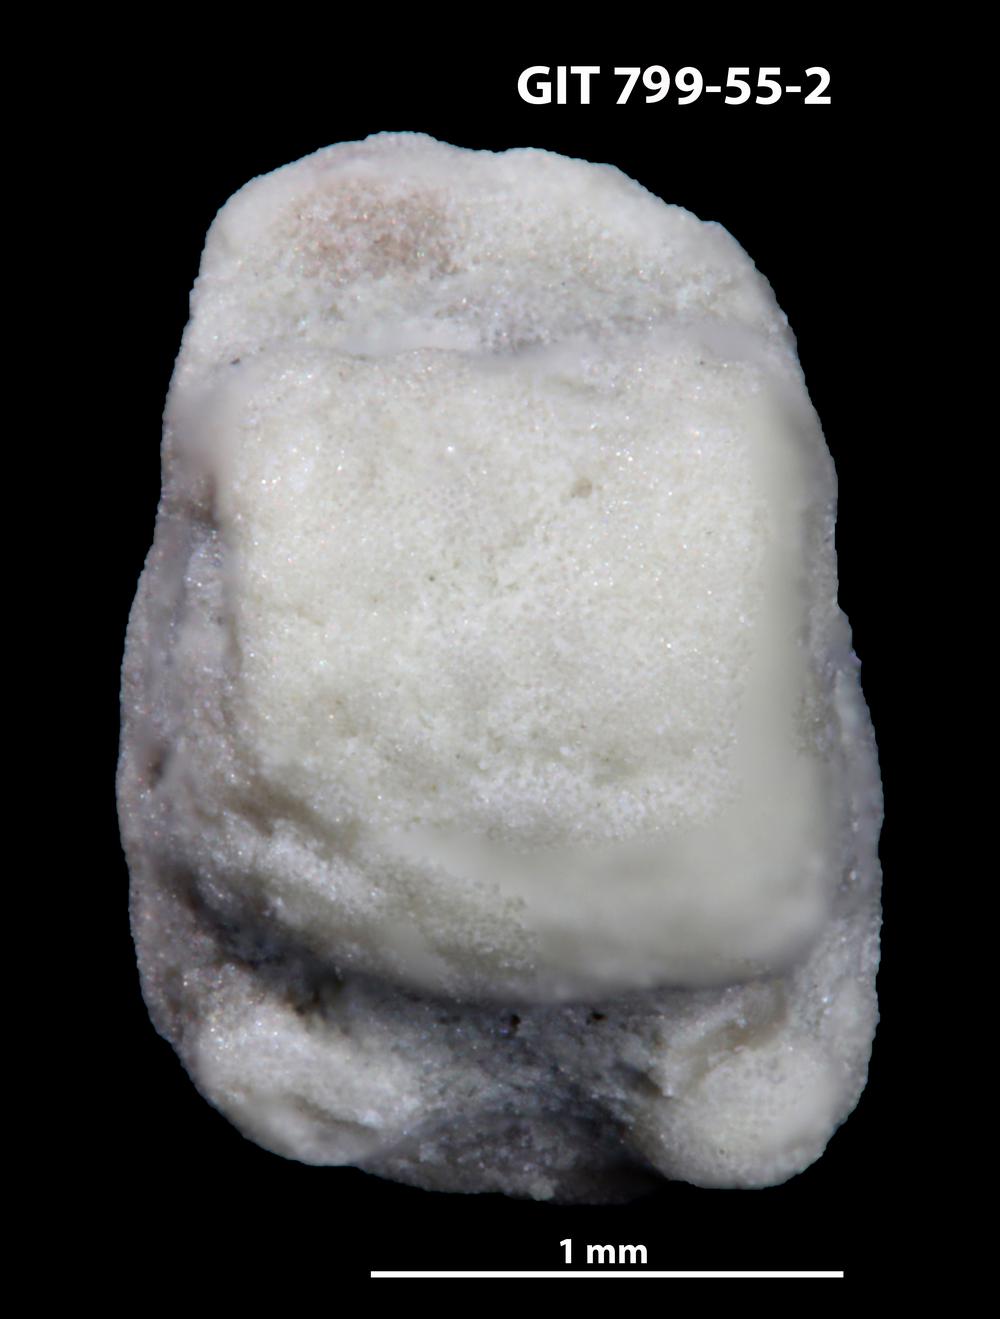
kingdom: Animalia
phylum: Echinodermata
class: Crinoidea
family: Cyclocystoididae
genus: Polytryphocycloides
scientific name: Polytryphocycloides
